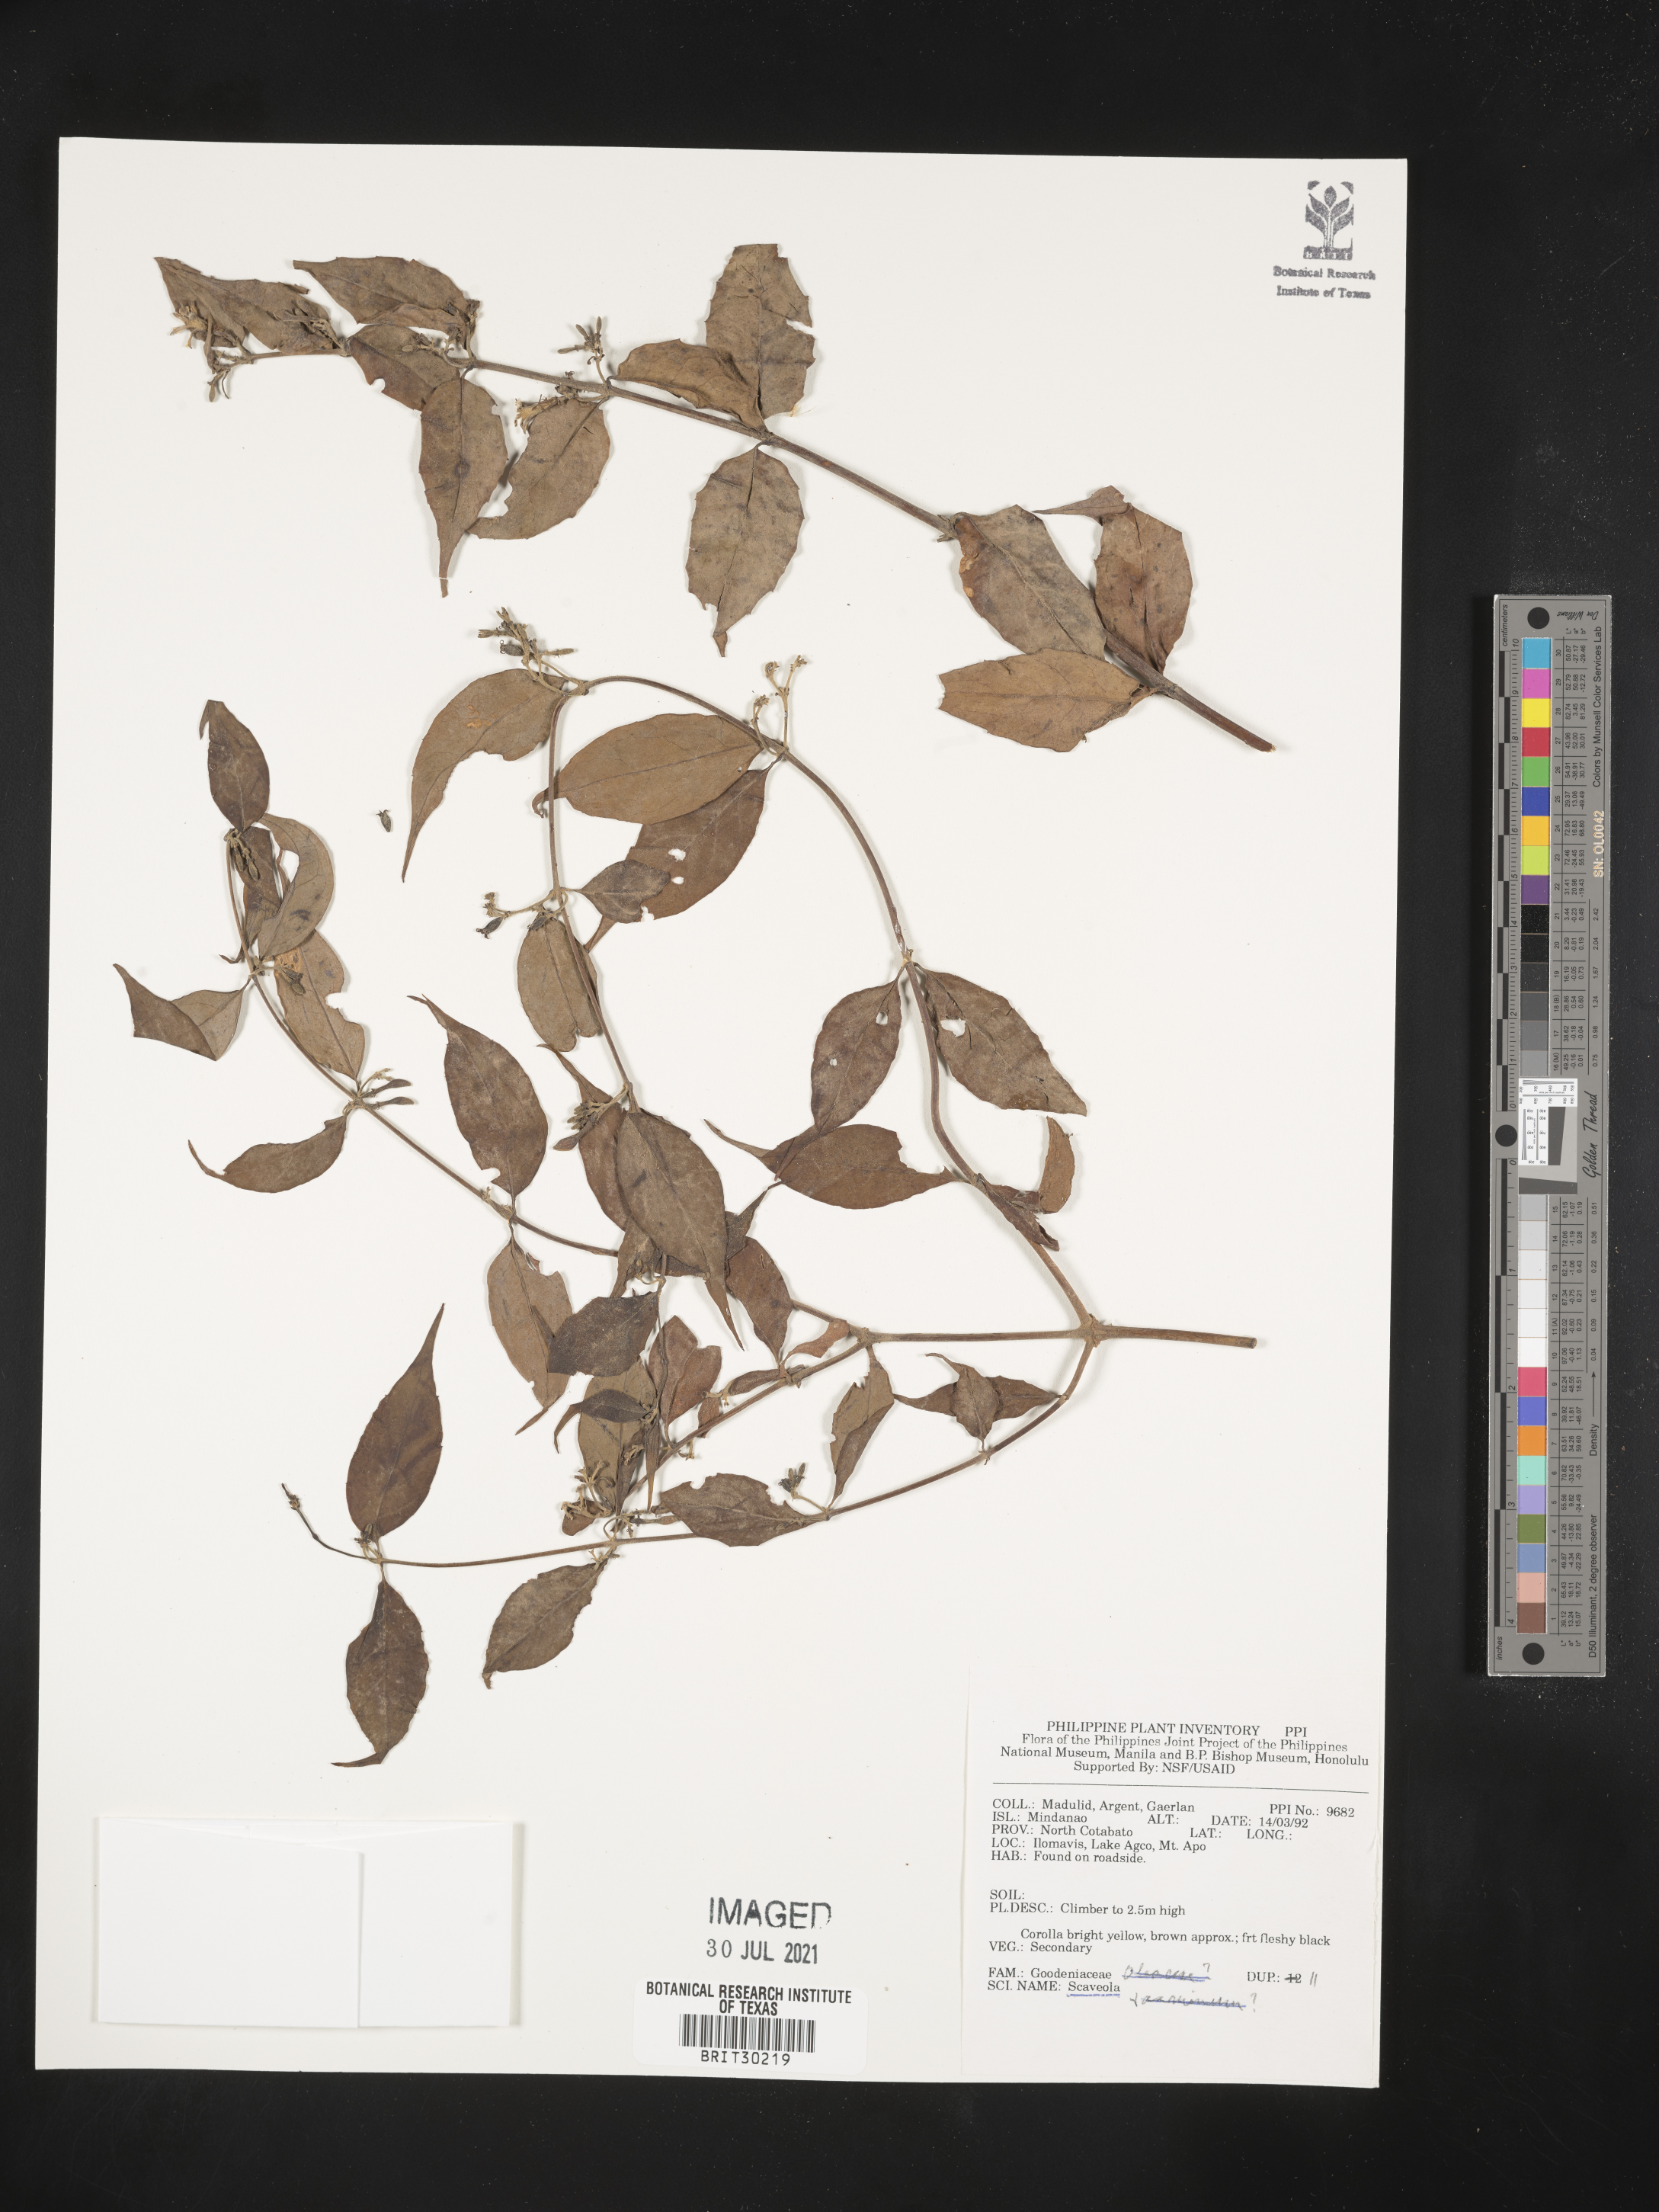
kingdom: Plantae
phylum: Tracheophyta
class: Magnoliopsida
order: Asterales
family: Goodeniaceae
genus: Scaevola
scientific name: Scaevola
